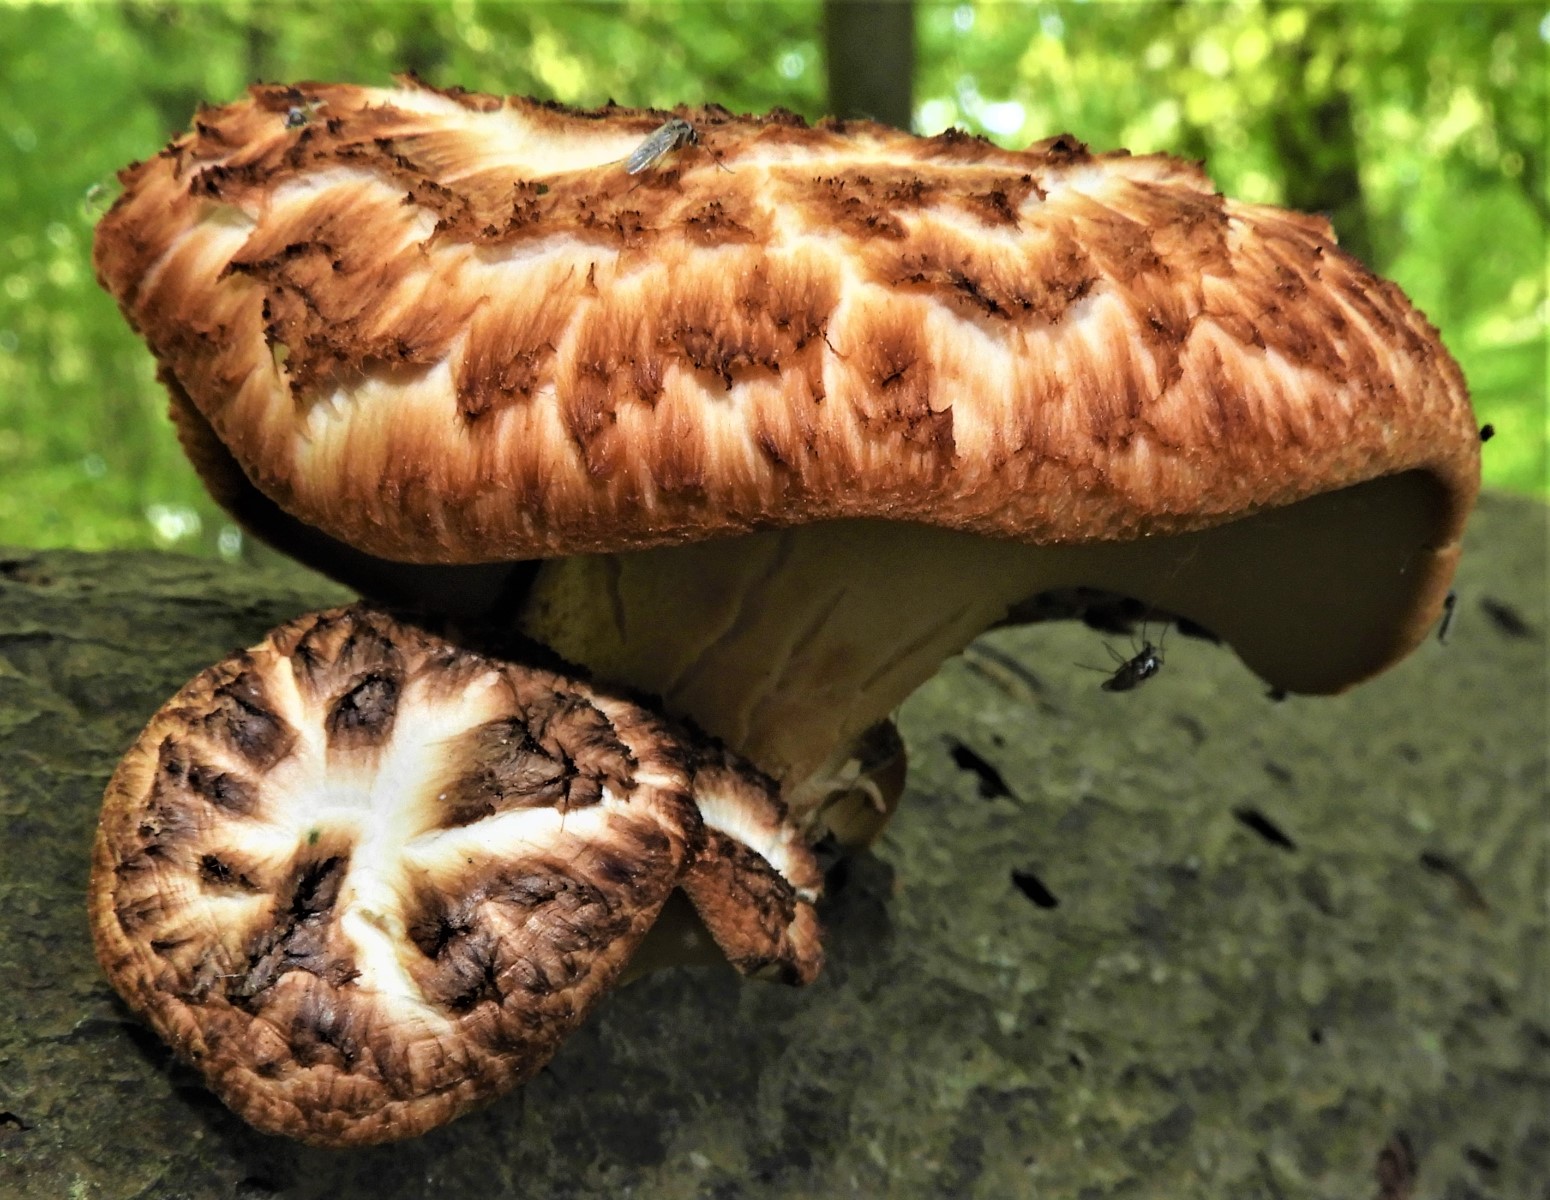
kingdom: Fungi
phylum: Basidiomycota
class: Agaricomycetes
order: Polyporales
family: Polyporaceae
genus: Cerioporus
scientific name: Cerioporus squamosus
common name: skællet stilkporesvamp
